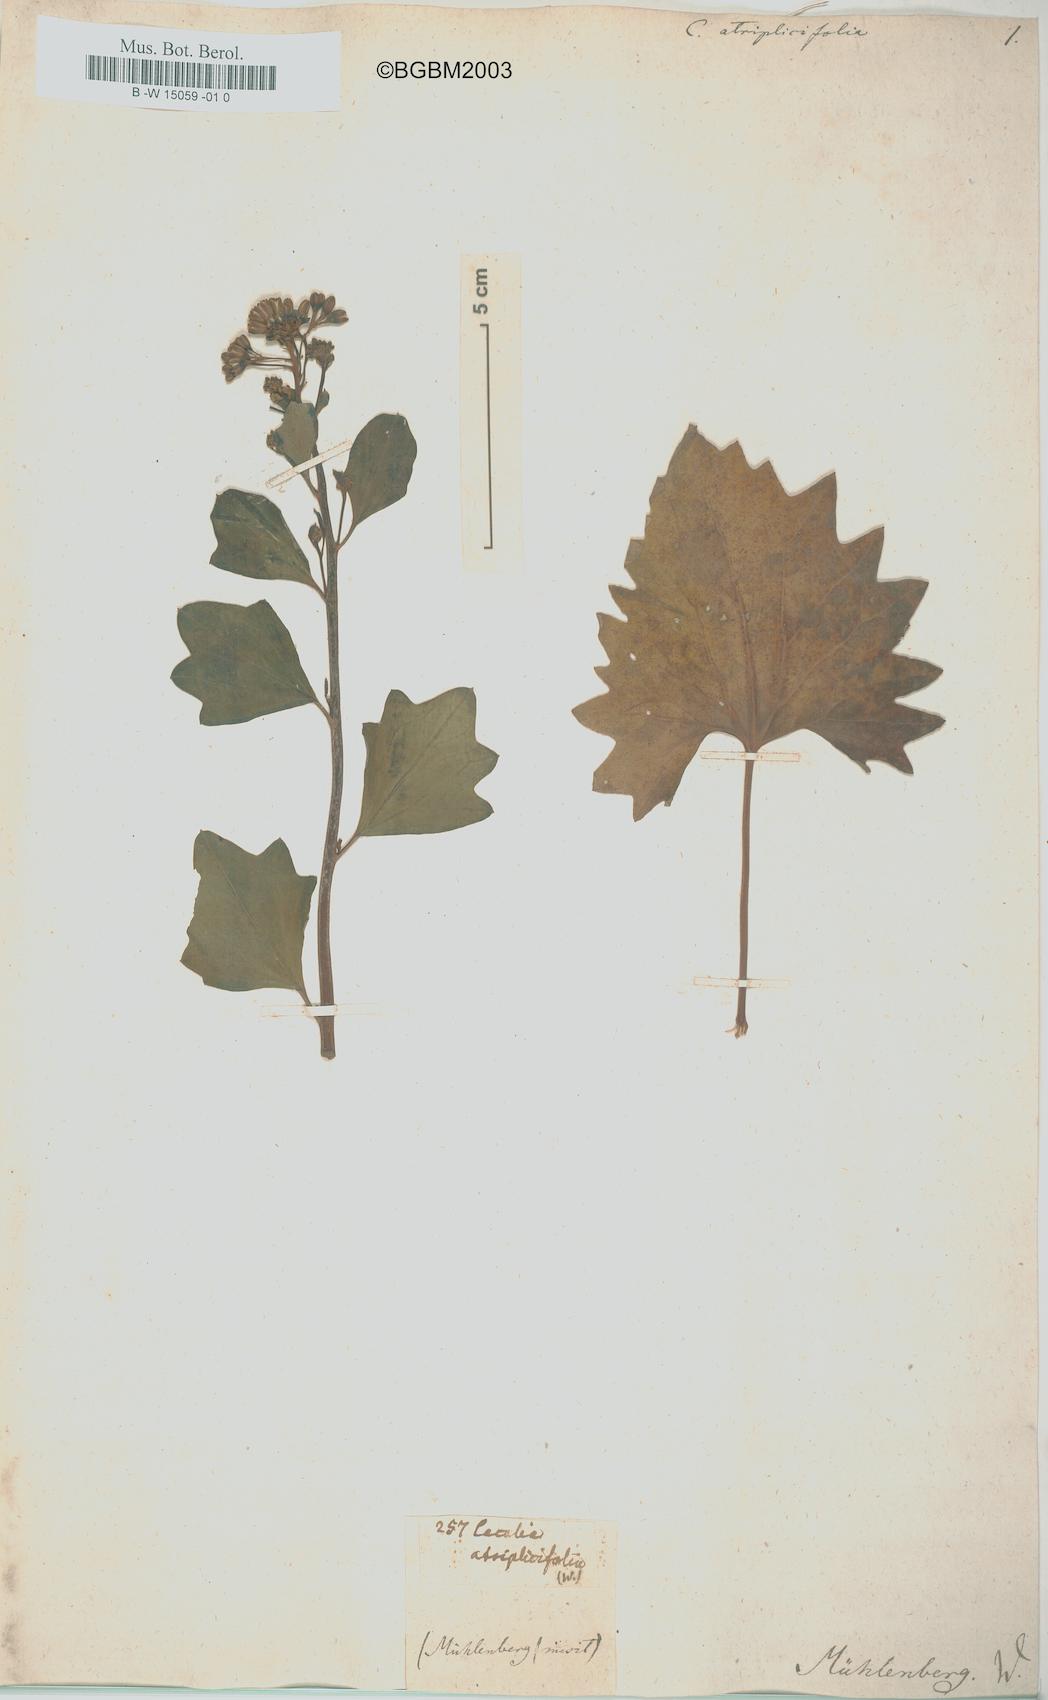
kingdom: Plantae
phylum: Tracheophyta
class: Magnoliopsida
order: Asterales
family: Asteraceae
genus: Arnoglossum
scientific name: Arnoglossum atriplicifolium
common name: Pale indian-plantain
